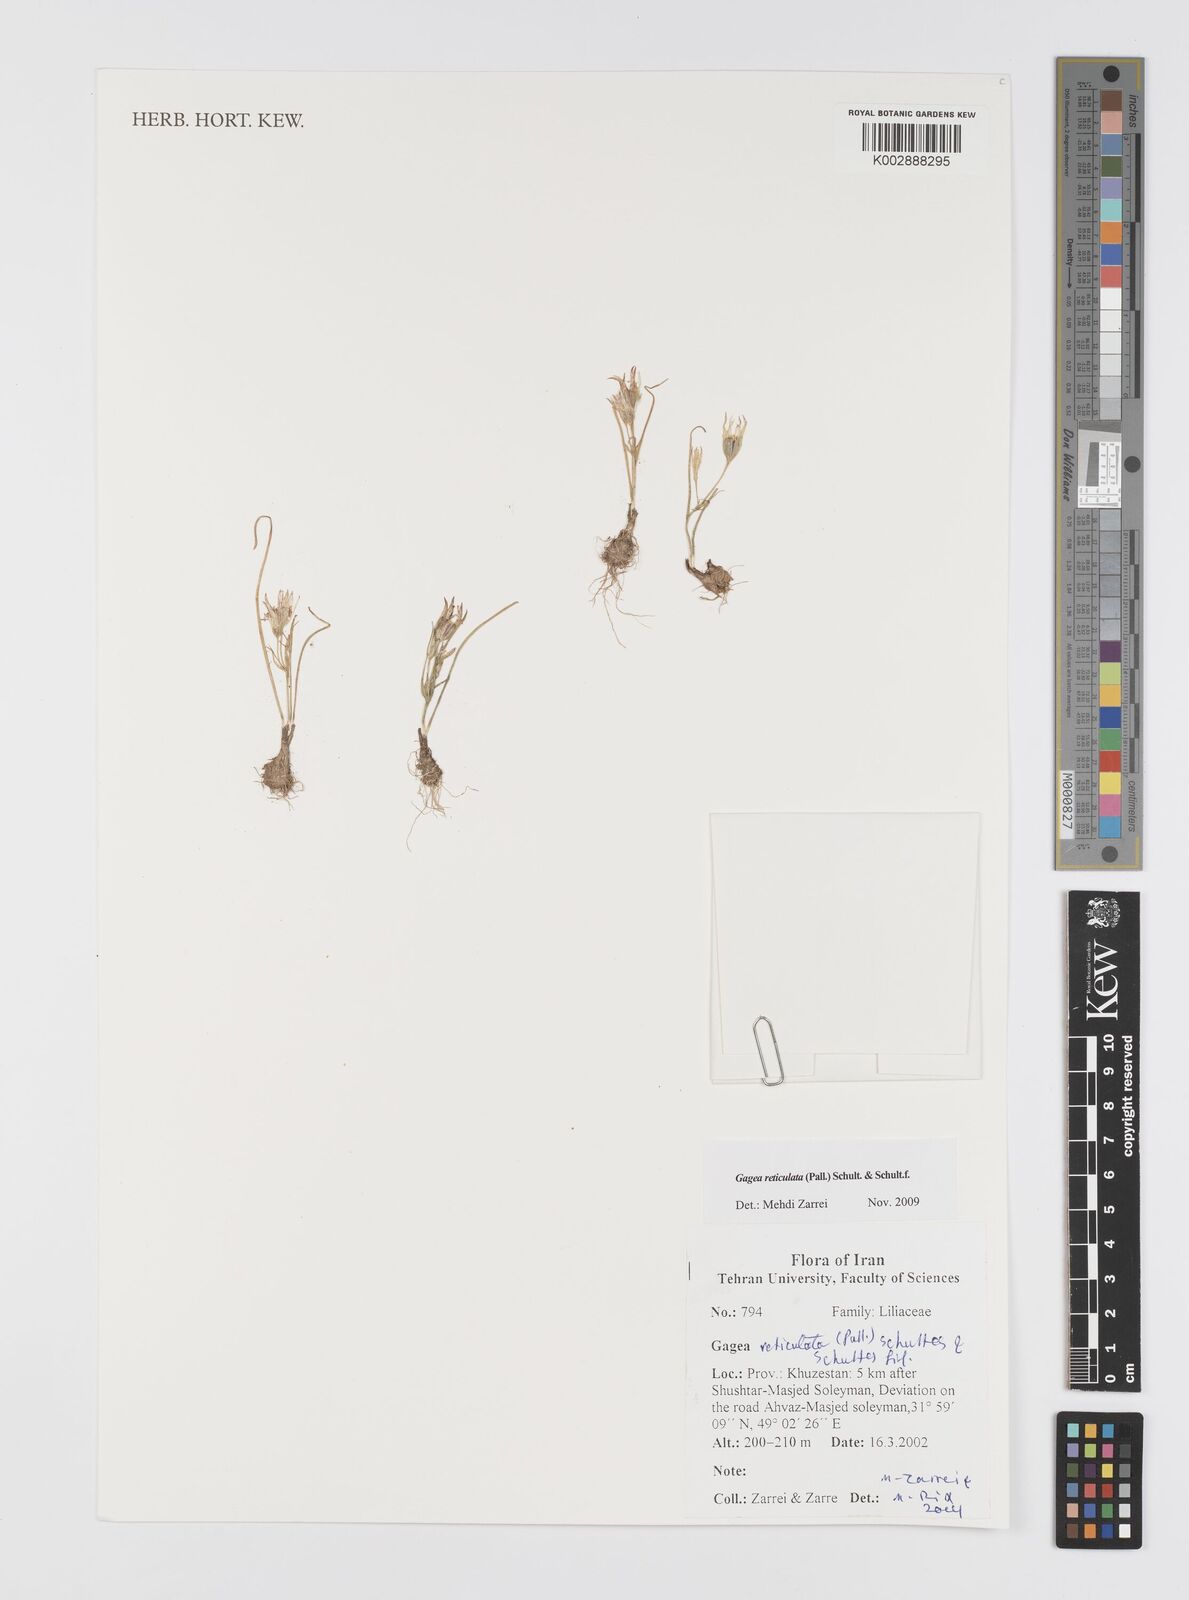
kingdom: Plantae
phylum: Tracheophyta
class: Liliopsida
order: Liliales
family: Liliaceae
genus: Gagea
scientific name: Gagea reticulata
